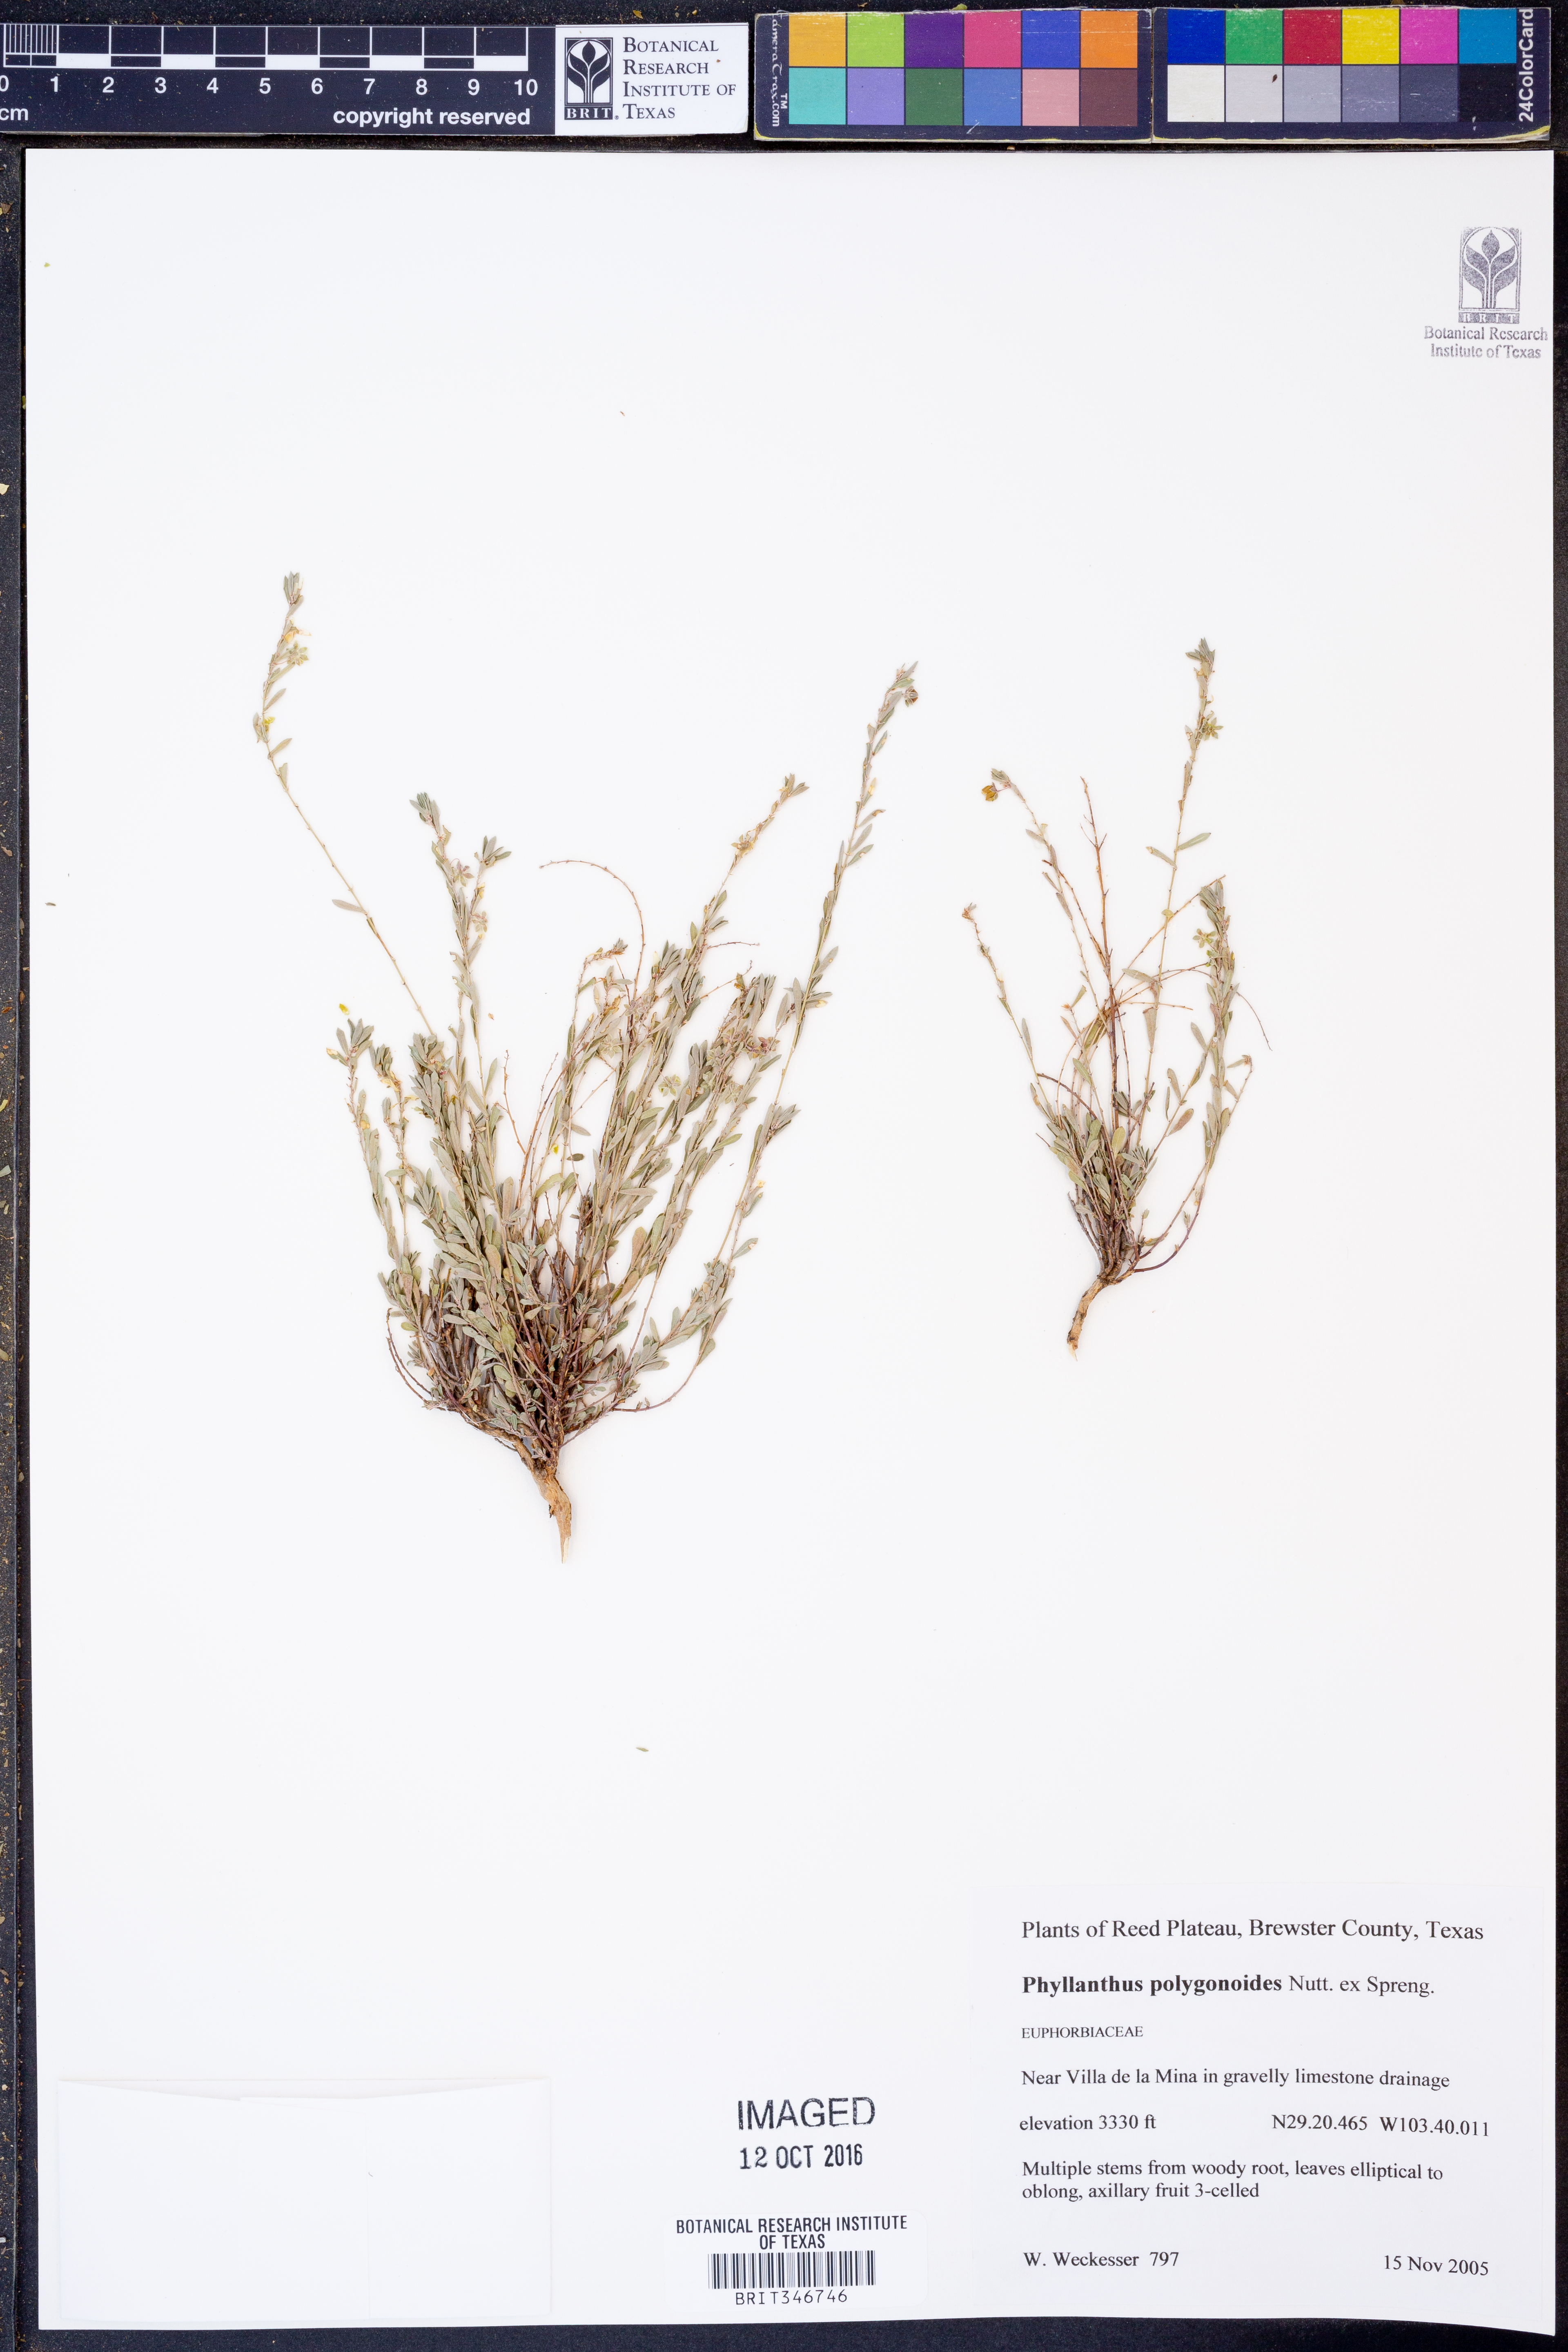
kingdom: Plantae
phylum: Tracheophyta
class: Magnoliopsida
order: Malpighiales
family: Phyllanthaceae
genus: Phyllanthus
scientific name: Phyllanthus polygonoides
